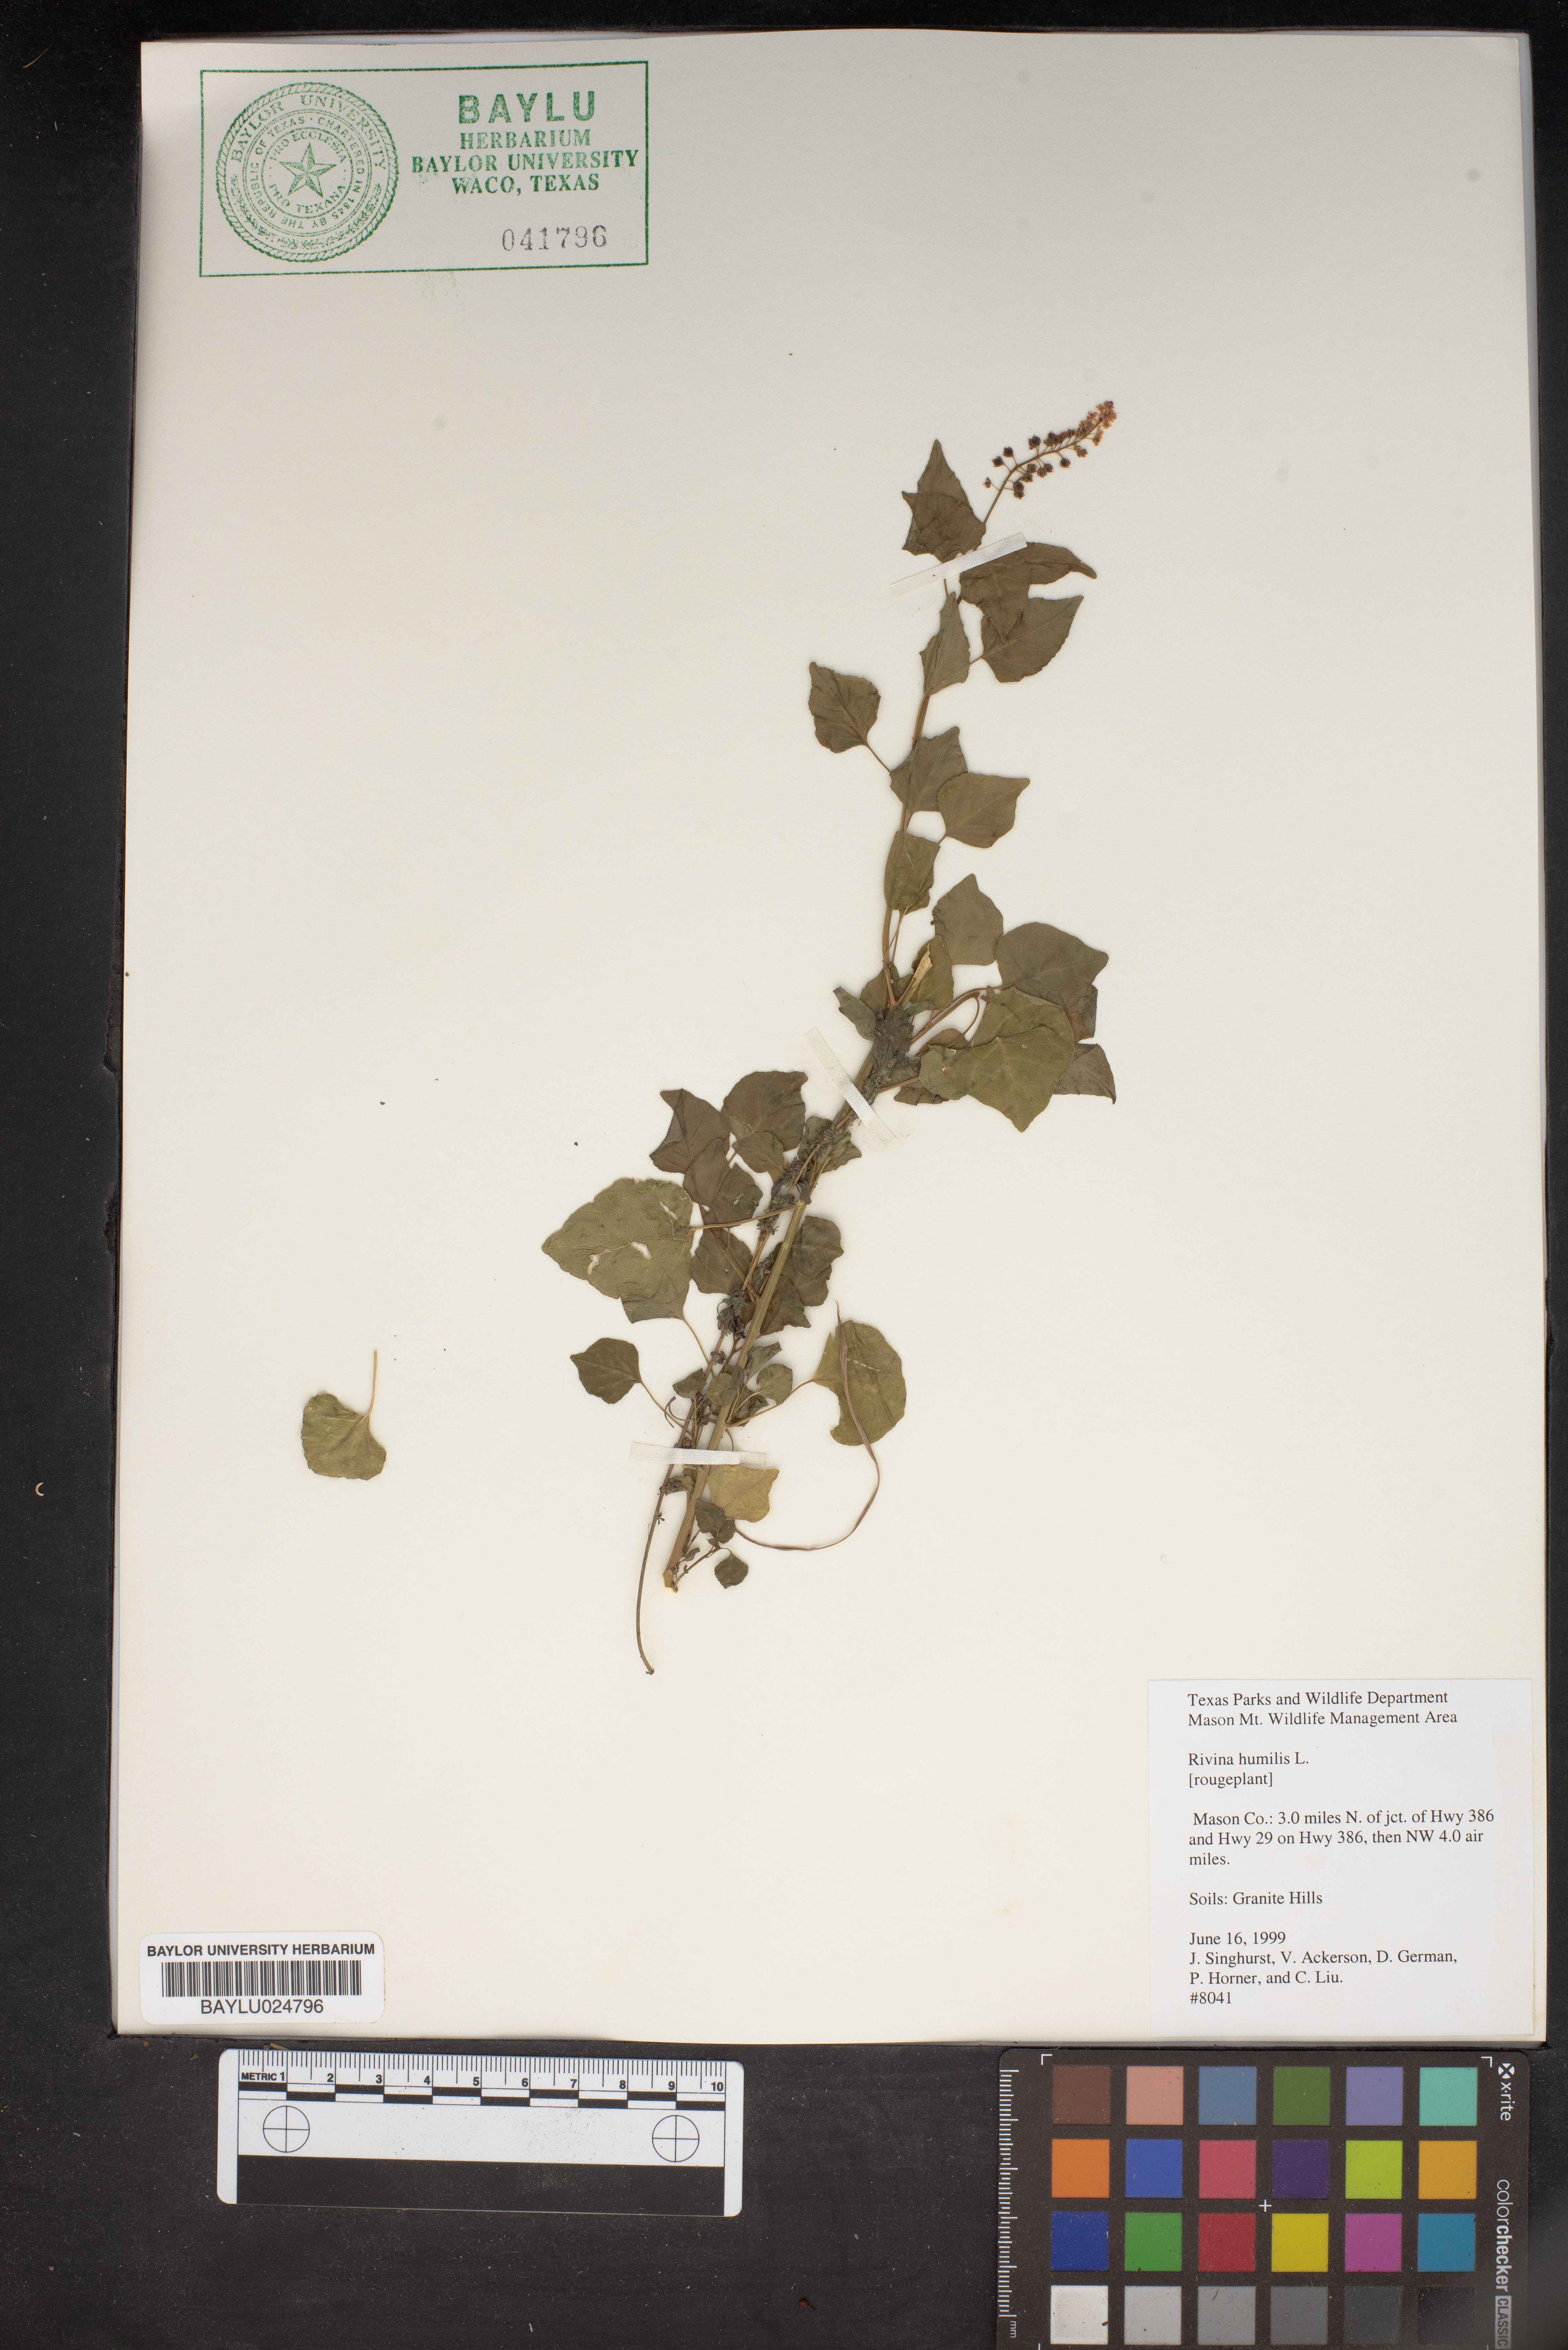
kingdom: Plantae
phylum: Tracheophyta
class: Magnoliopsida
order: Caryophyllales
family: Phytolaccaceae
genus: Rivina
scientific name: Rivina humilis
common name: Rougeplant
